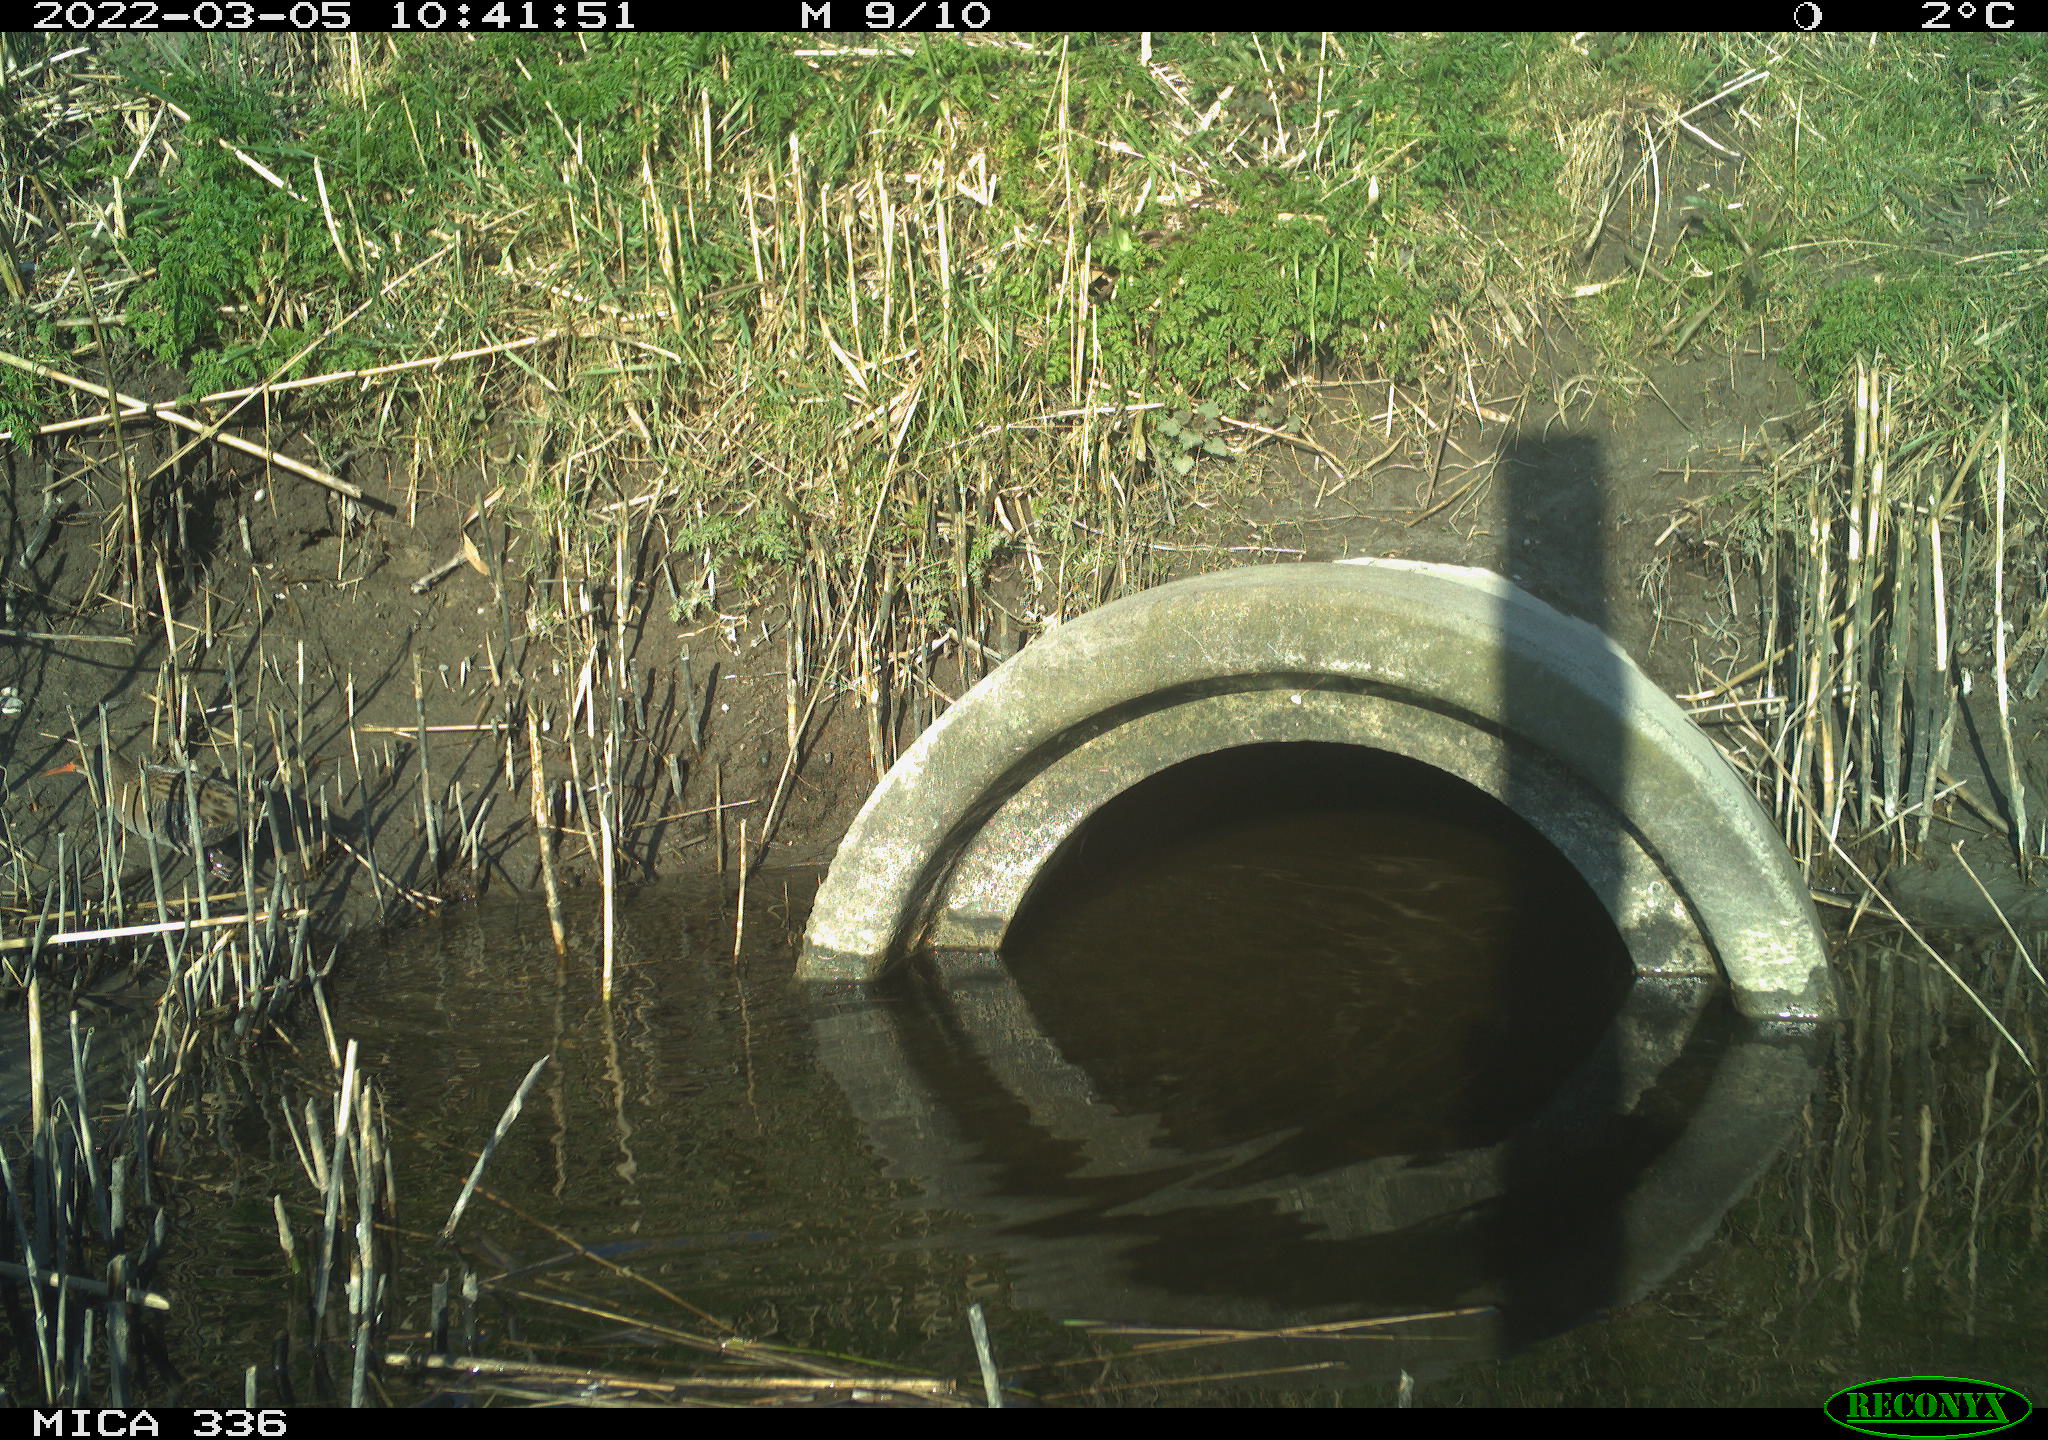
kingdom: Animalia
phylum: Chordata
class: Aves
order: Gruiformes
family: Rallidae
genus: Gallinula
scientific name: Gallinula chloropus
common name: Common moorhen
